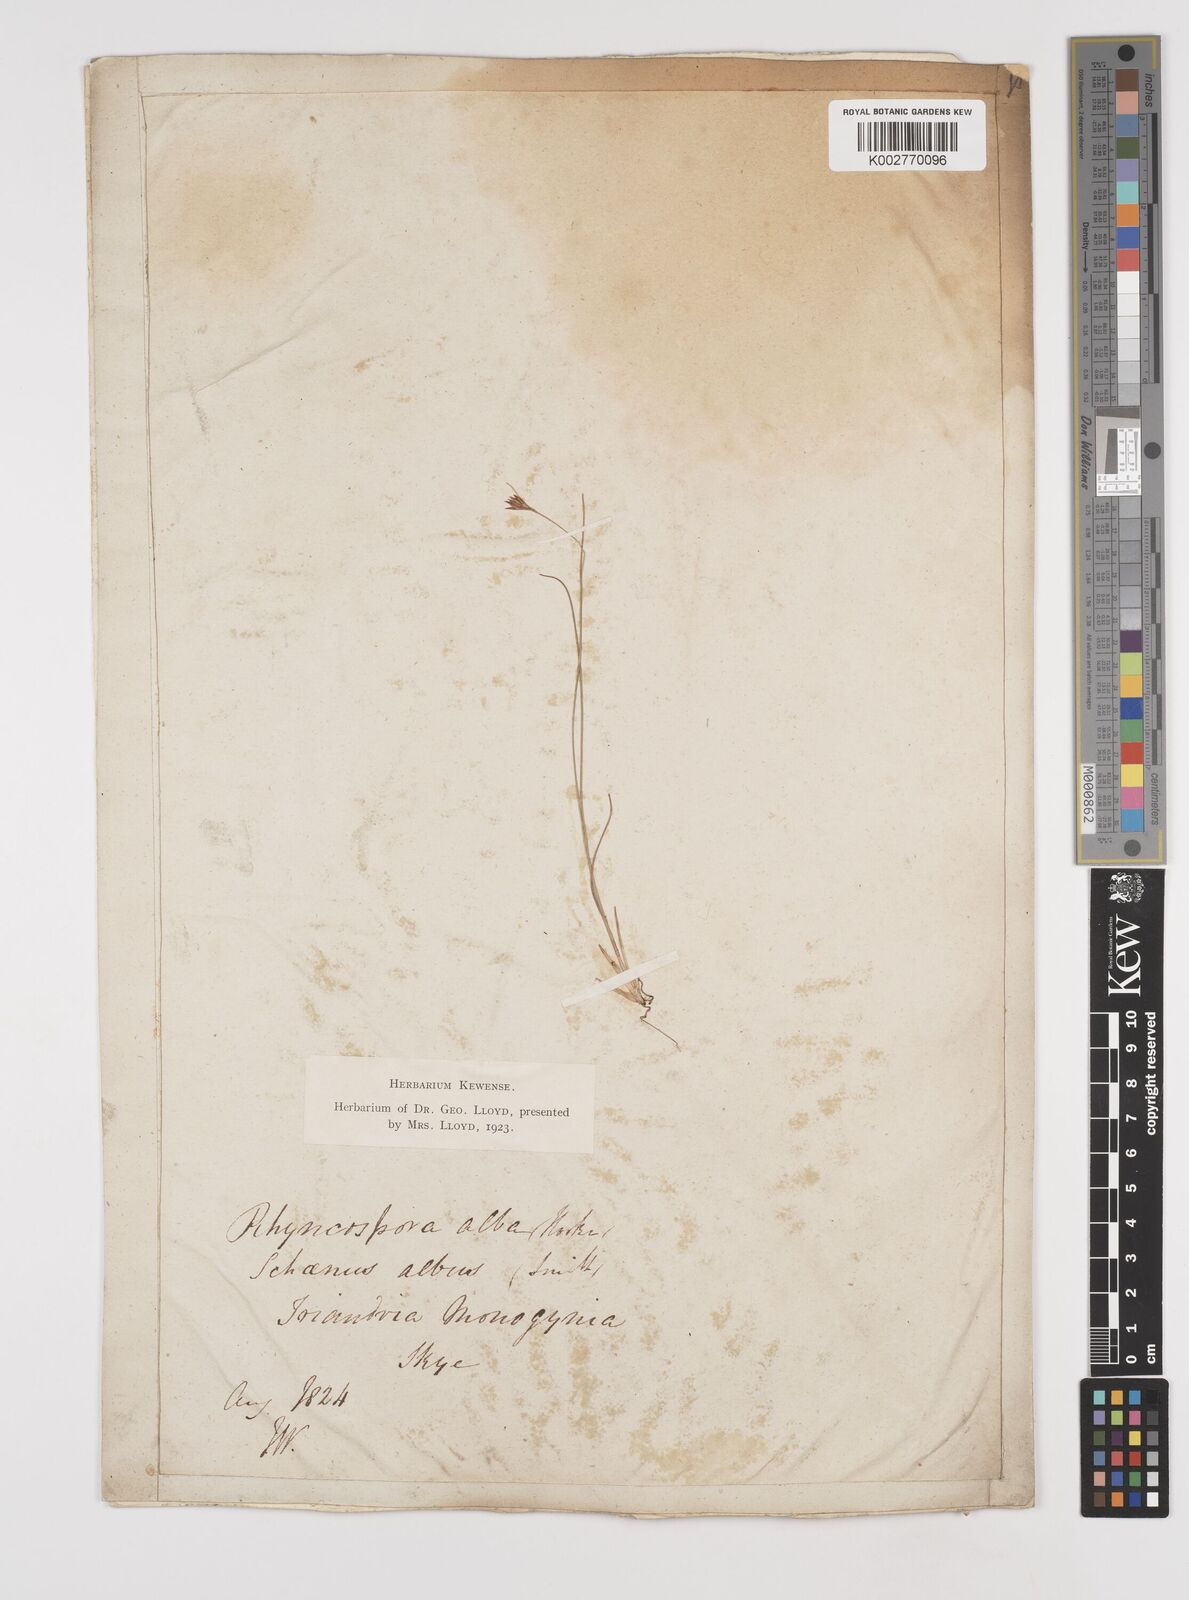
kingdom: Plantae
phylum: Tracheophyta
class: Liliopsida
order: Poales
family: Cyperaceae
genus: Rhynchospora
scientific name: Rhynchospora alba
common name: White beak-sedge
